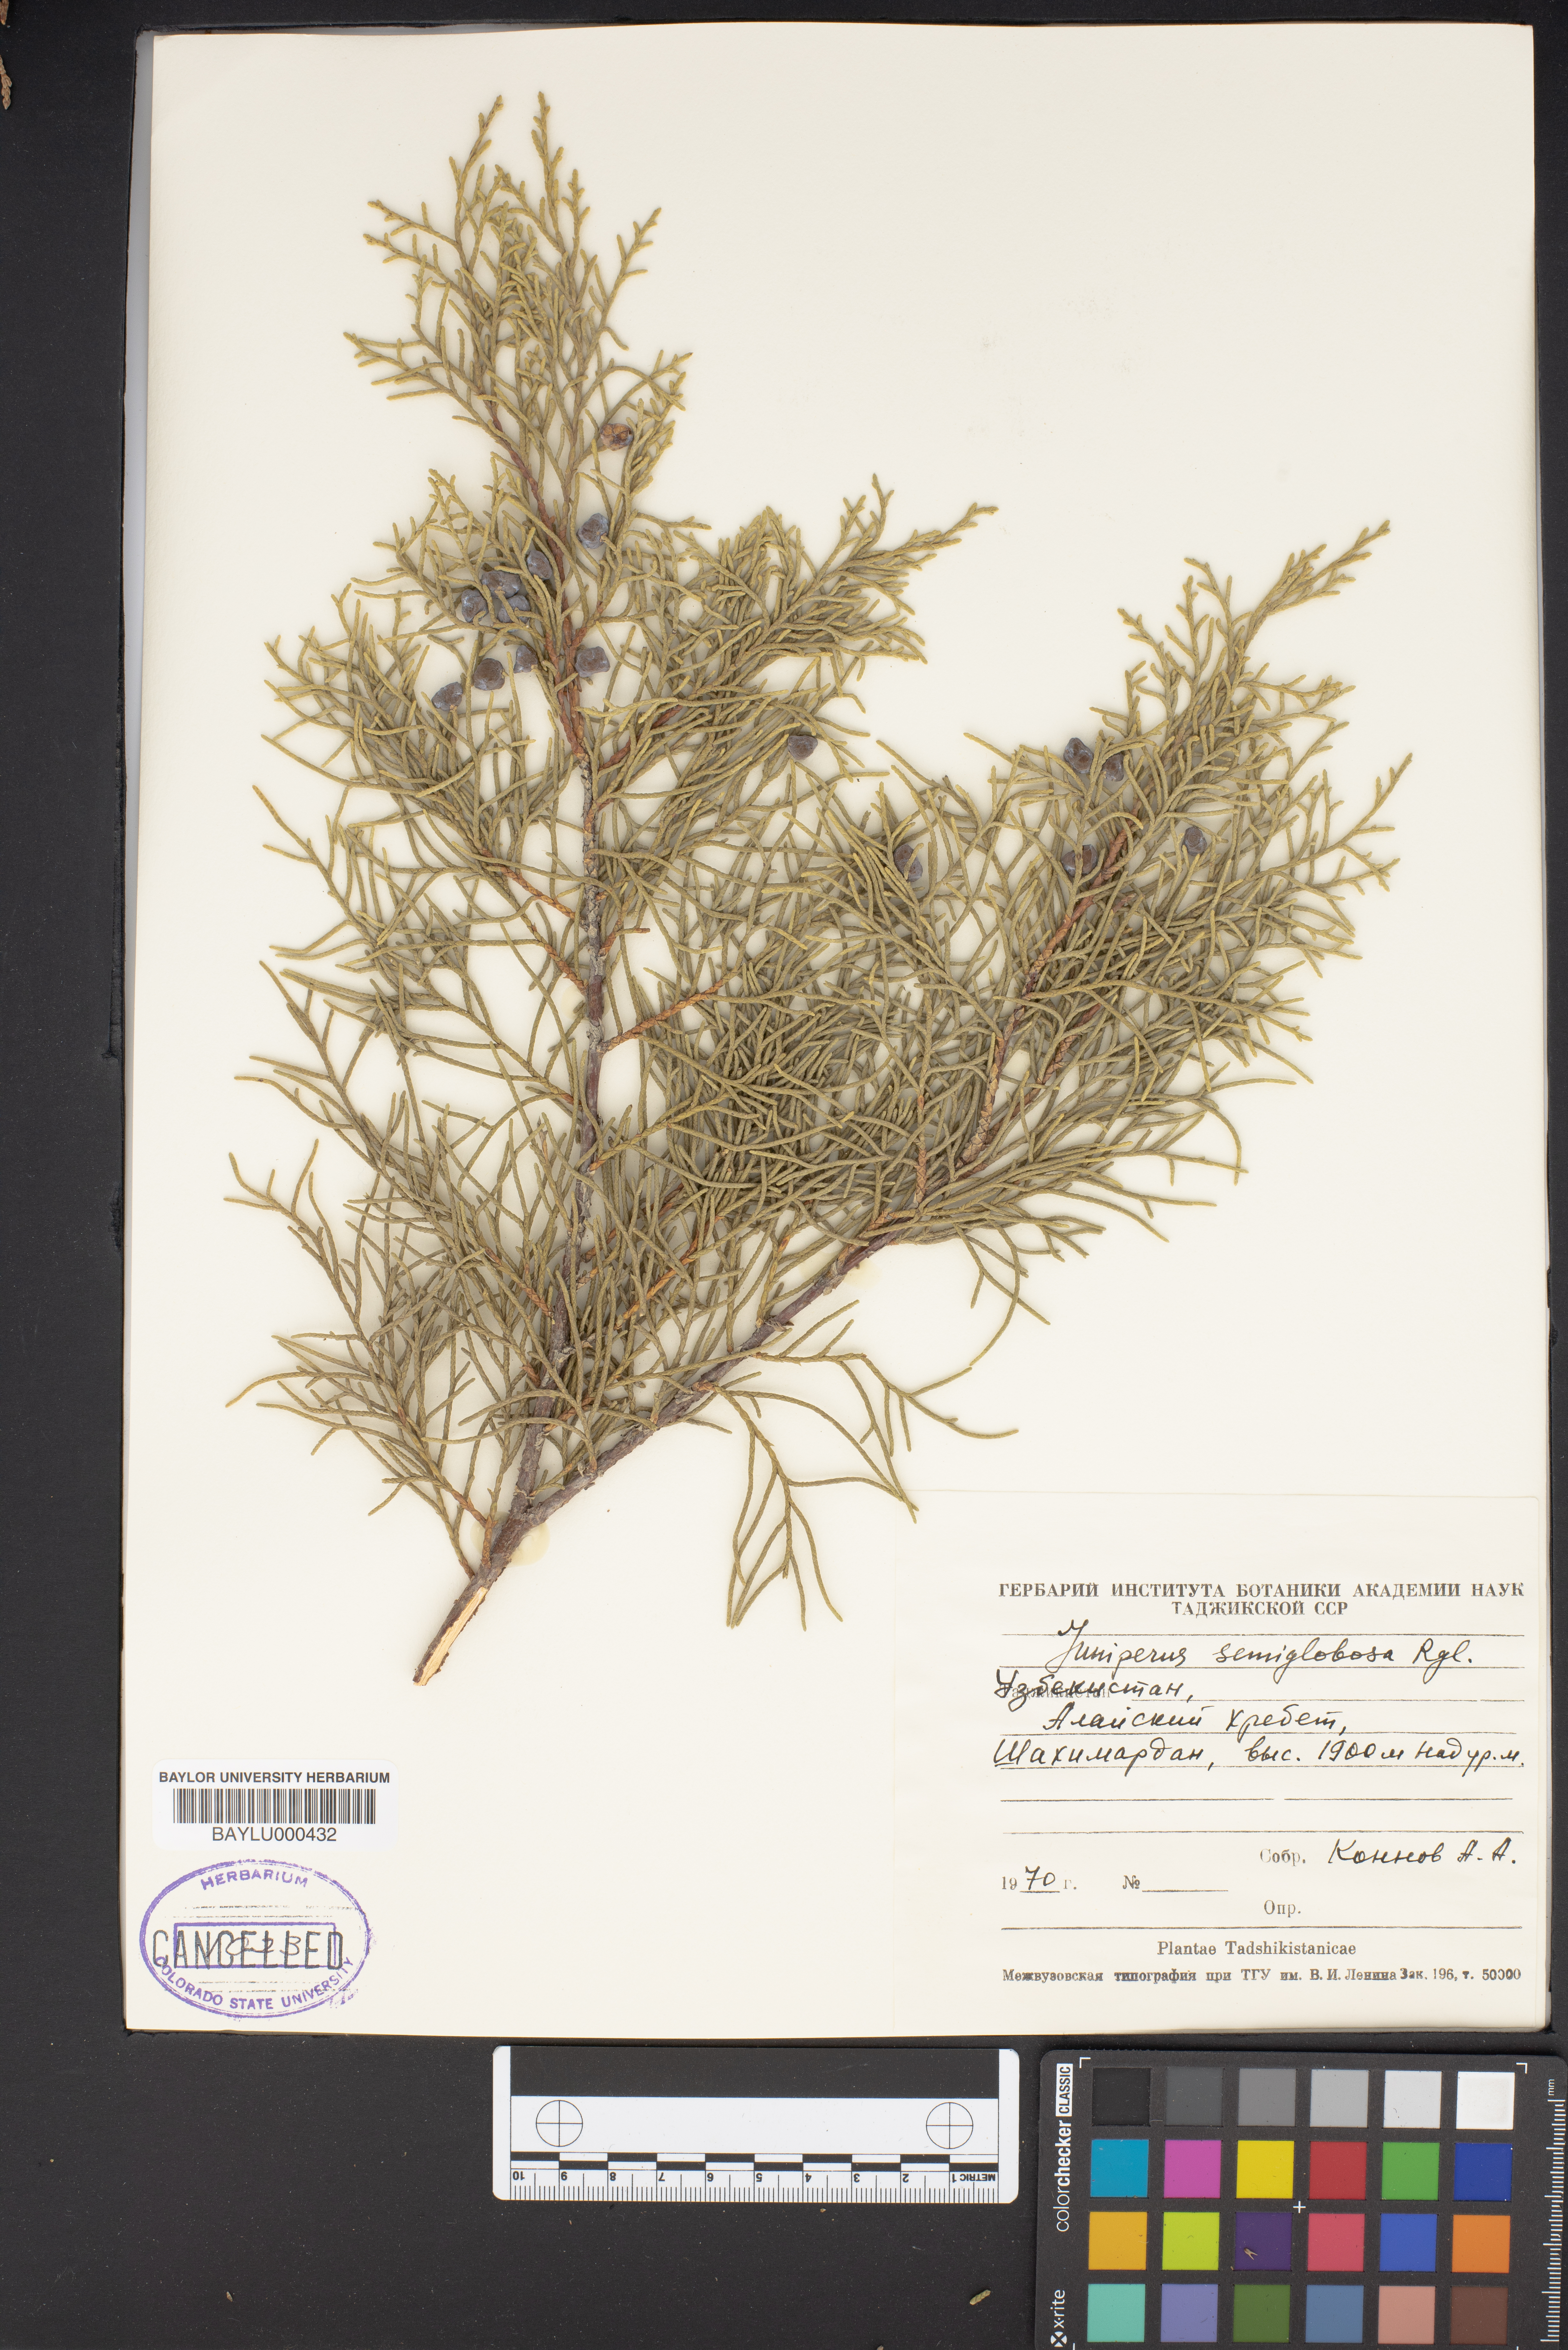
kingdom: Plantae
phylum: Tracheophyta
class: Pinopsida
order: Pinales
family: Cupressaceae
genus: Juniperus
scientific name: Juniperus semiglobosa
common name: Pencil cedar
